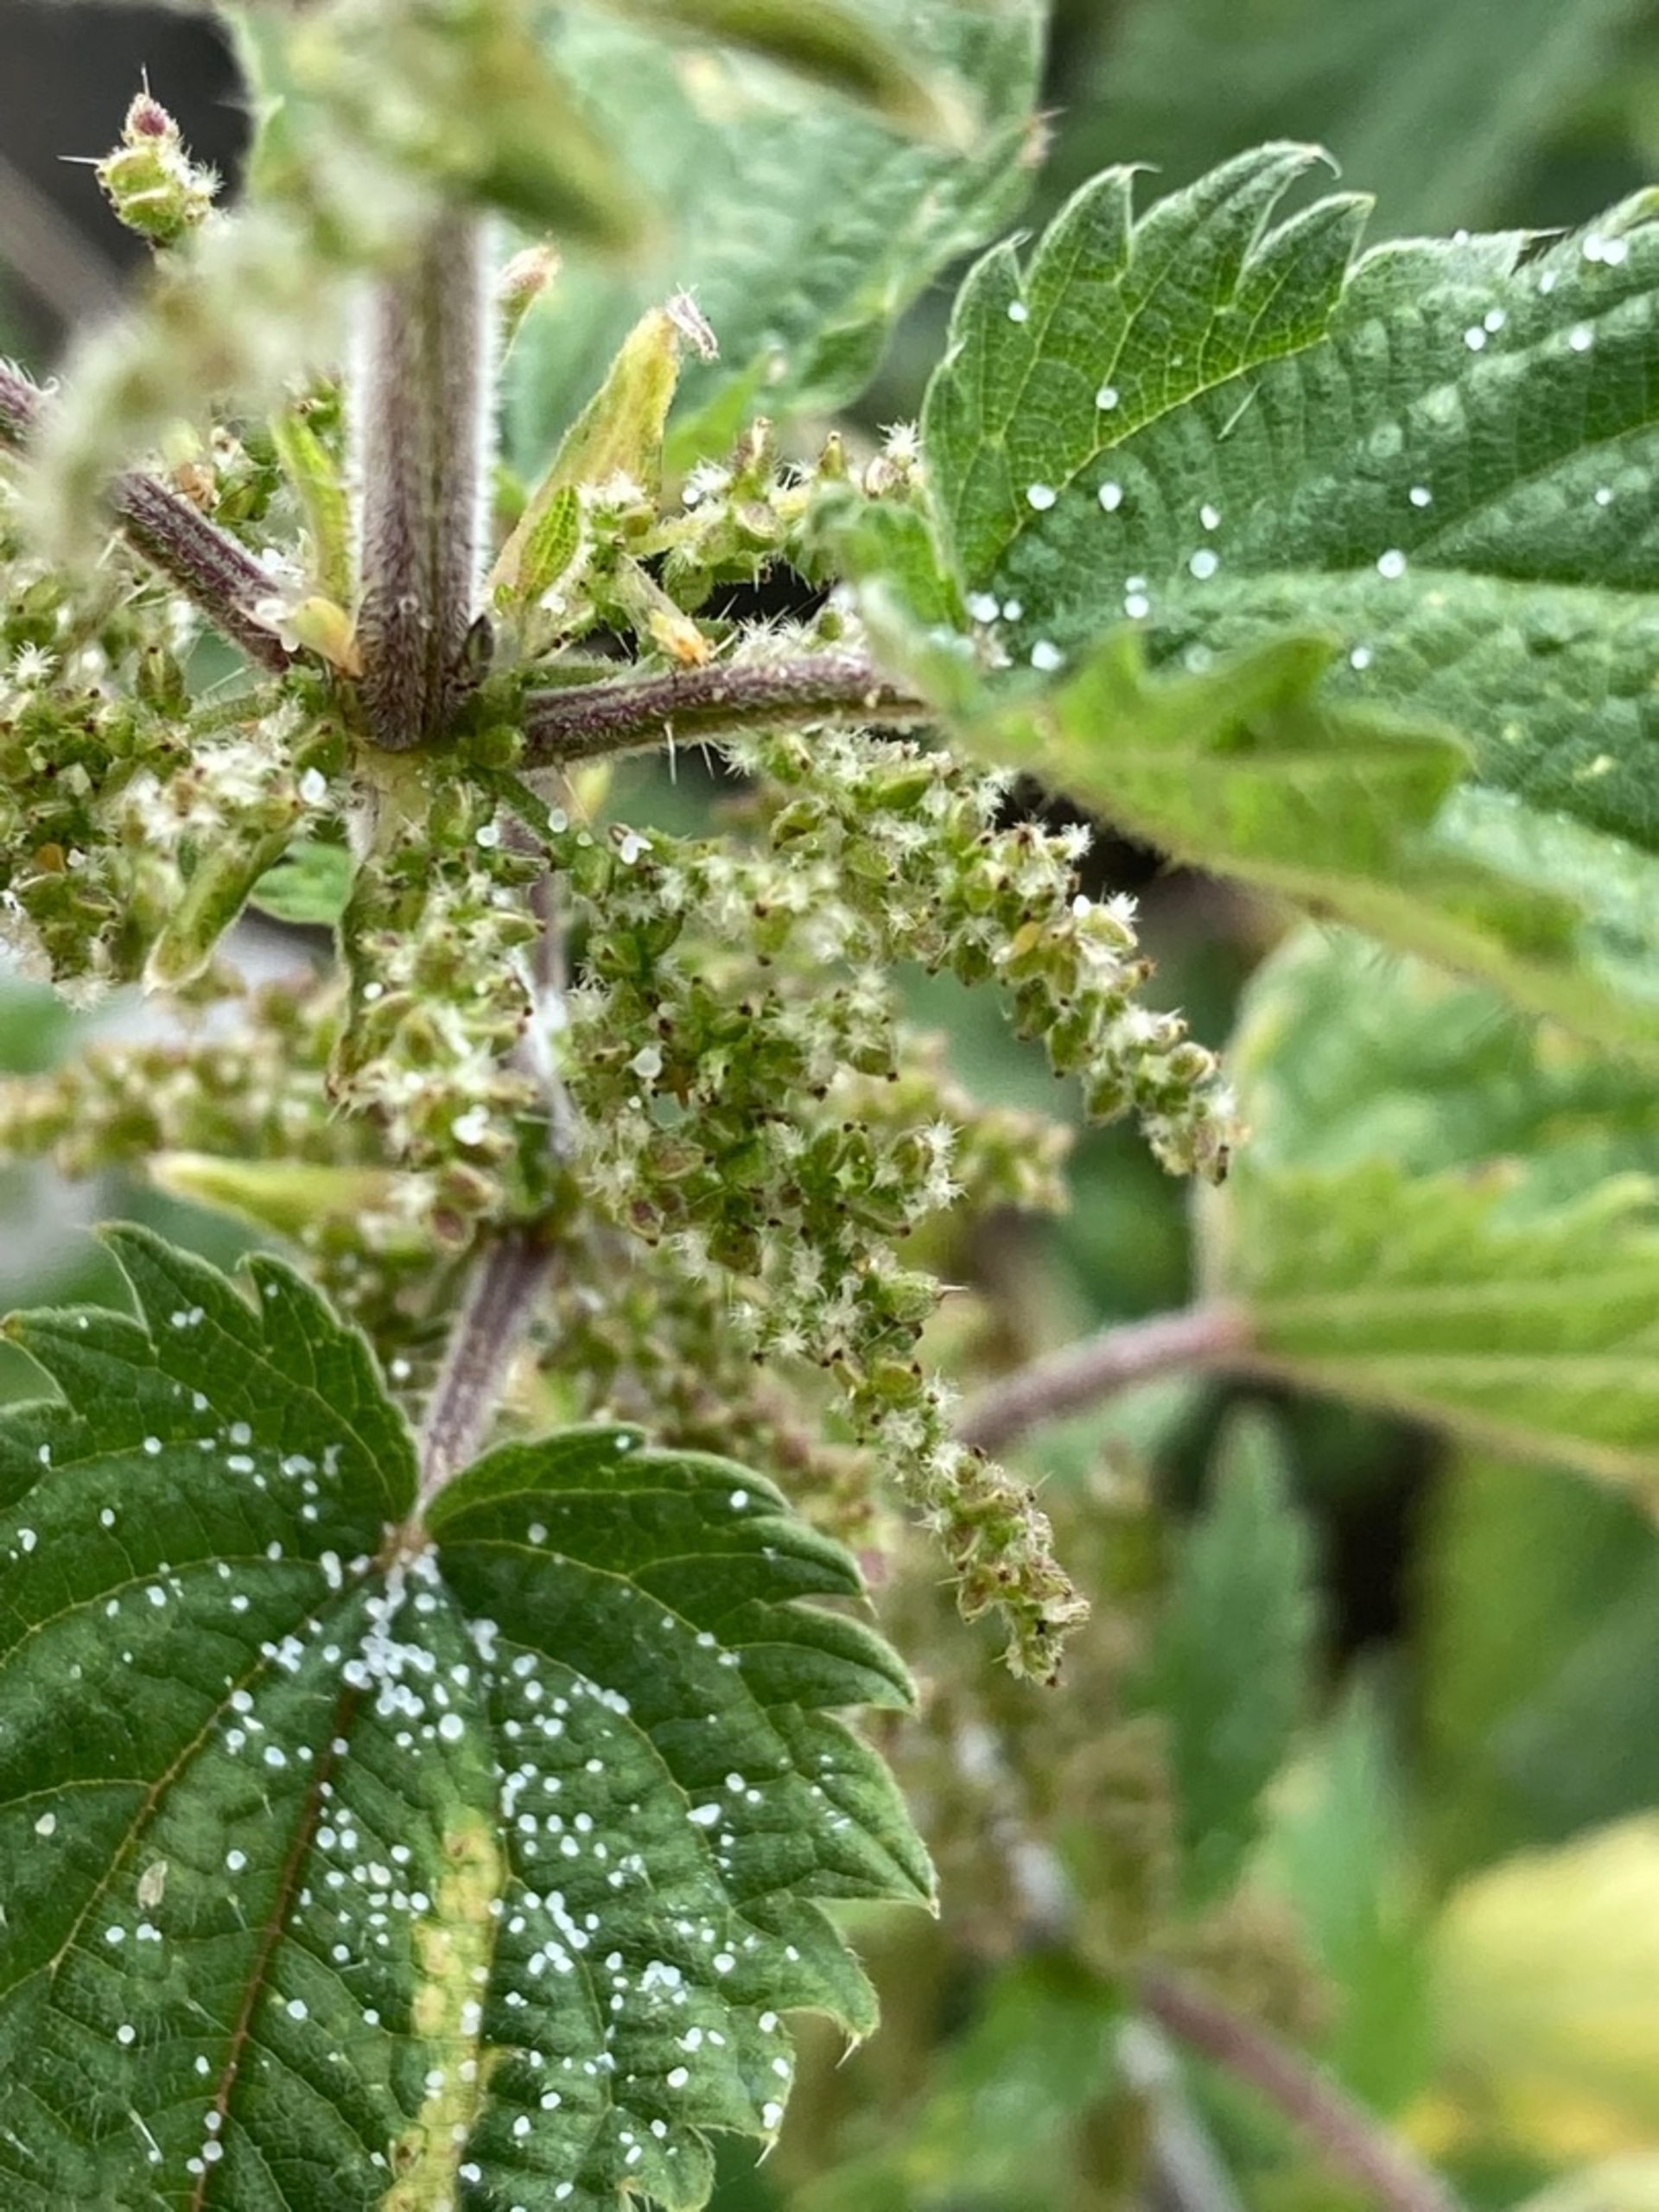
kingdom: Animalia
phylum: Arthropoda
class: Insecta
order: Lepidoptera
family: Nymphalidae
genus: Aglais
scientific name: Aglais urticae
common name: Nældens takvinge
